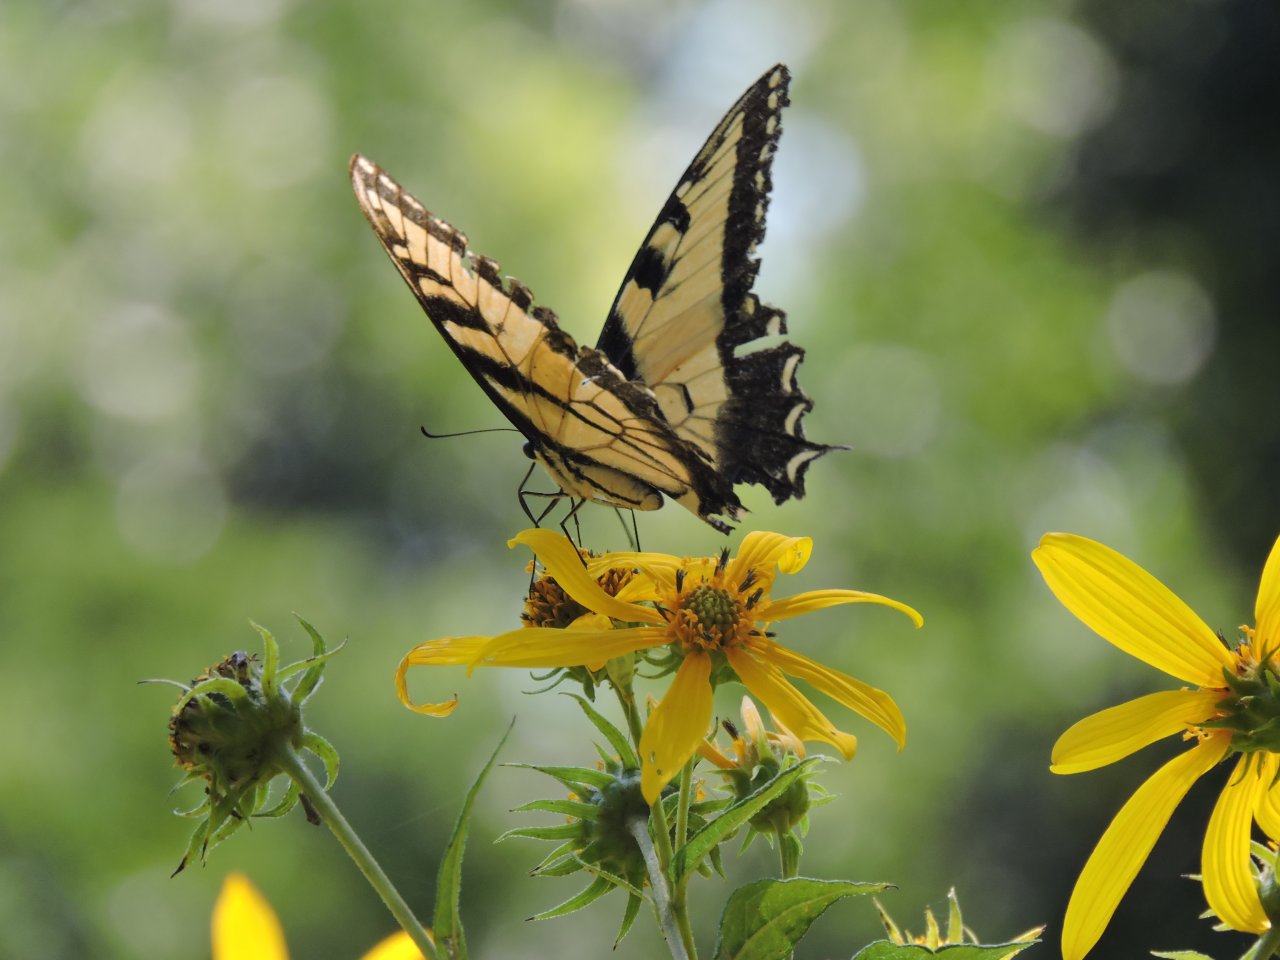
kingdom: Animalia
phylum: Arthropoda
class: Insecta
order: Lepidoptera
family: Papilionidae
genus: Pterourus
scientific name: Pterourus glaucus
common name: Eastern Tiger Swallowtail
